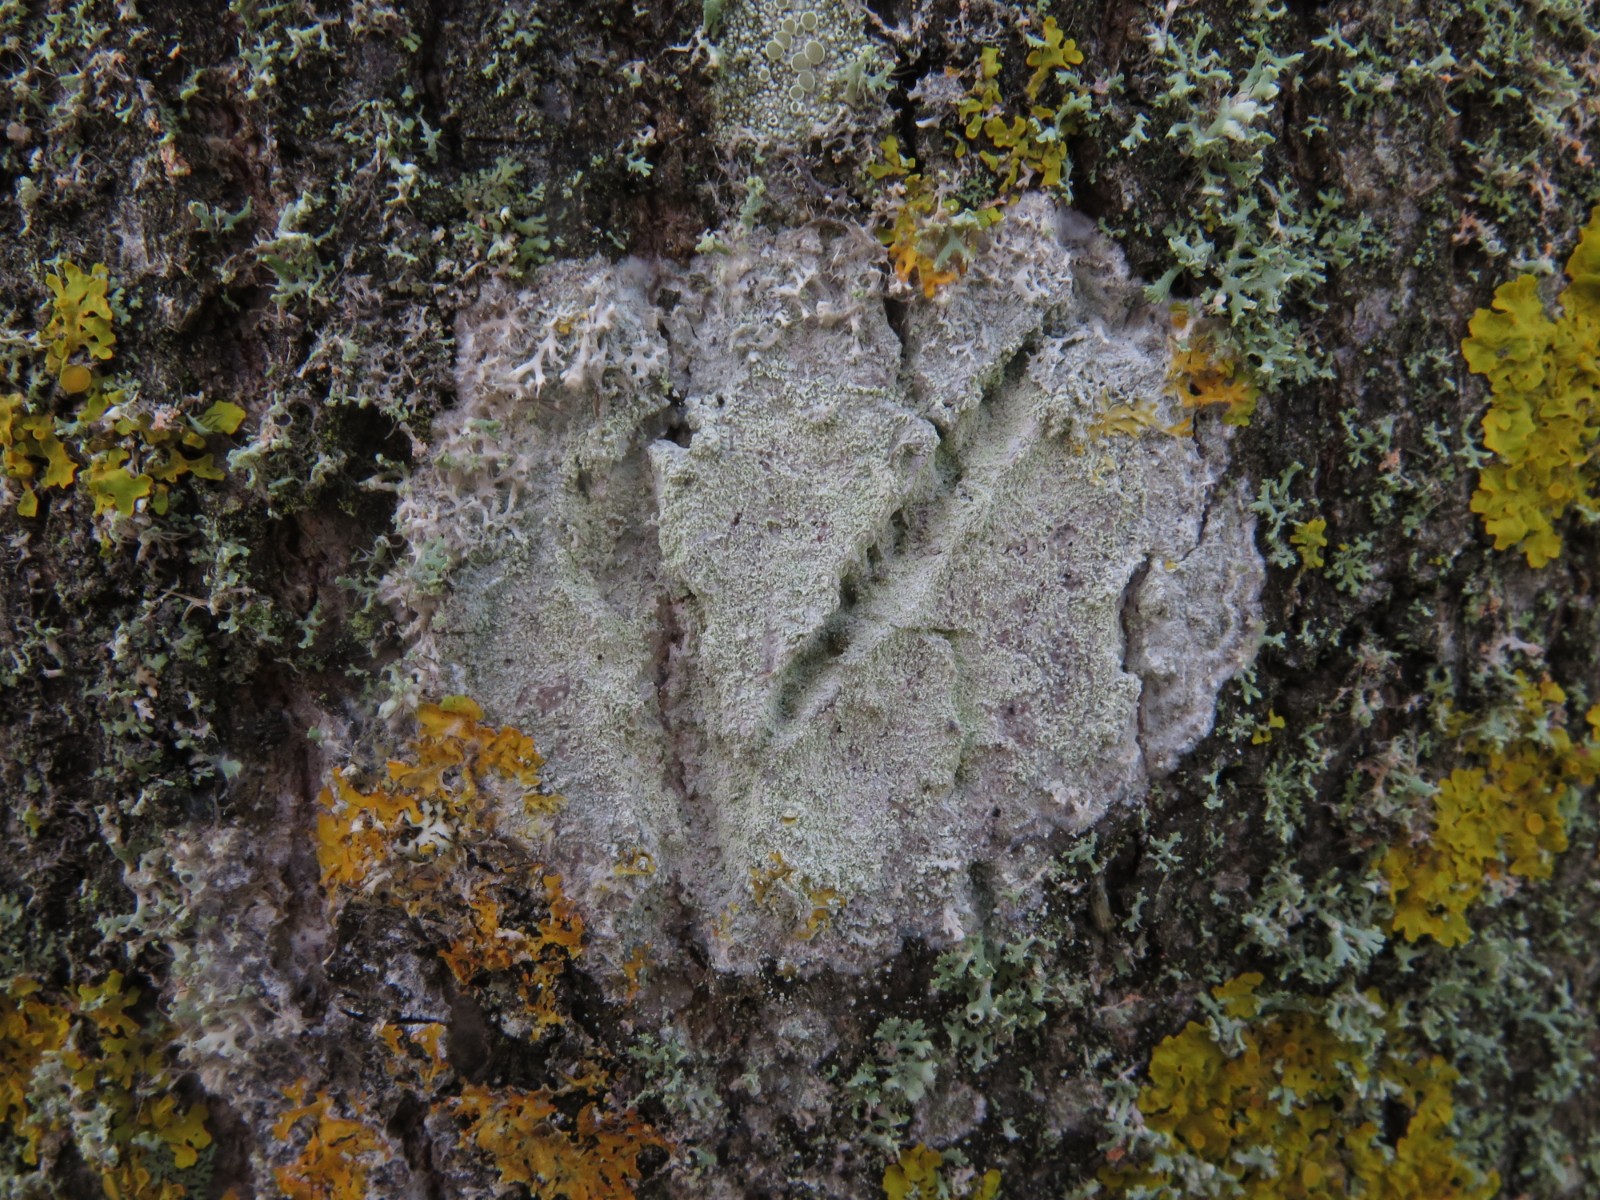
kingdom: Fungi
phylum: Ascomycota
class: Lecanoromycetes
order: Ostropales
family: Phlyctidaceae
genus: Phlyctis
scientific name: Phlyctis argena
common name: almindelig sølvlav
